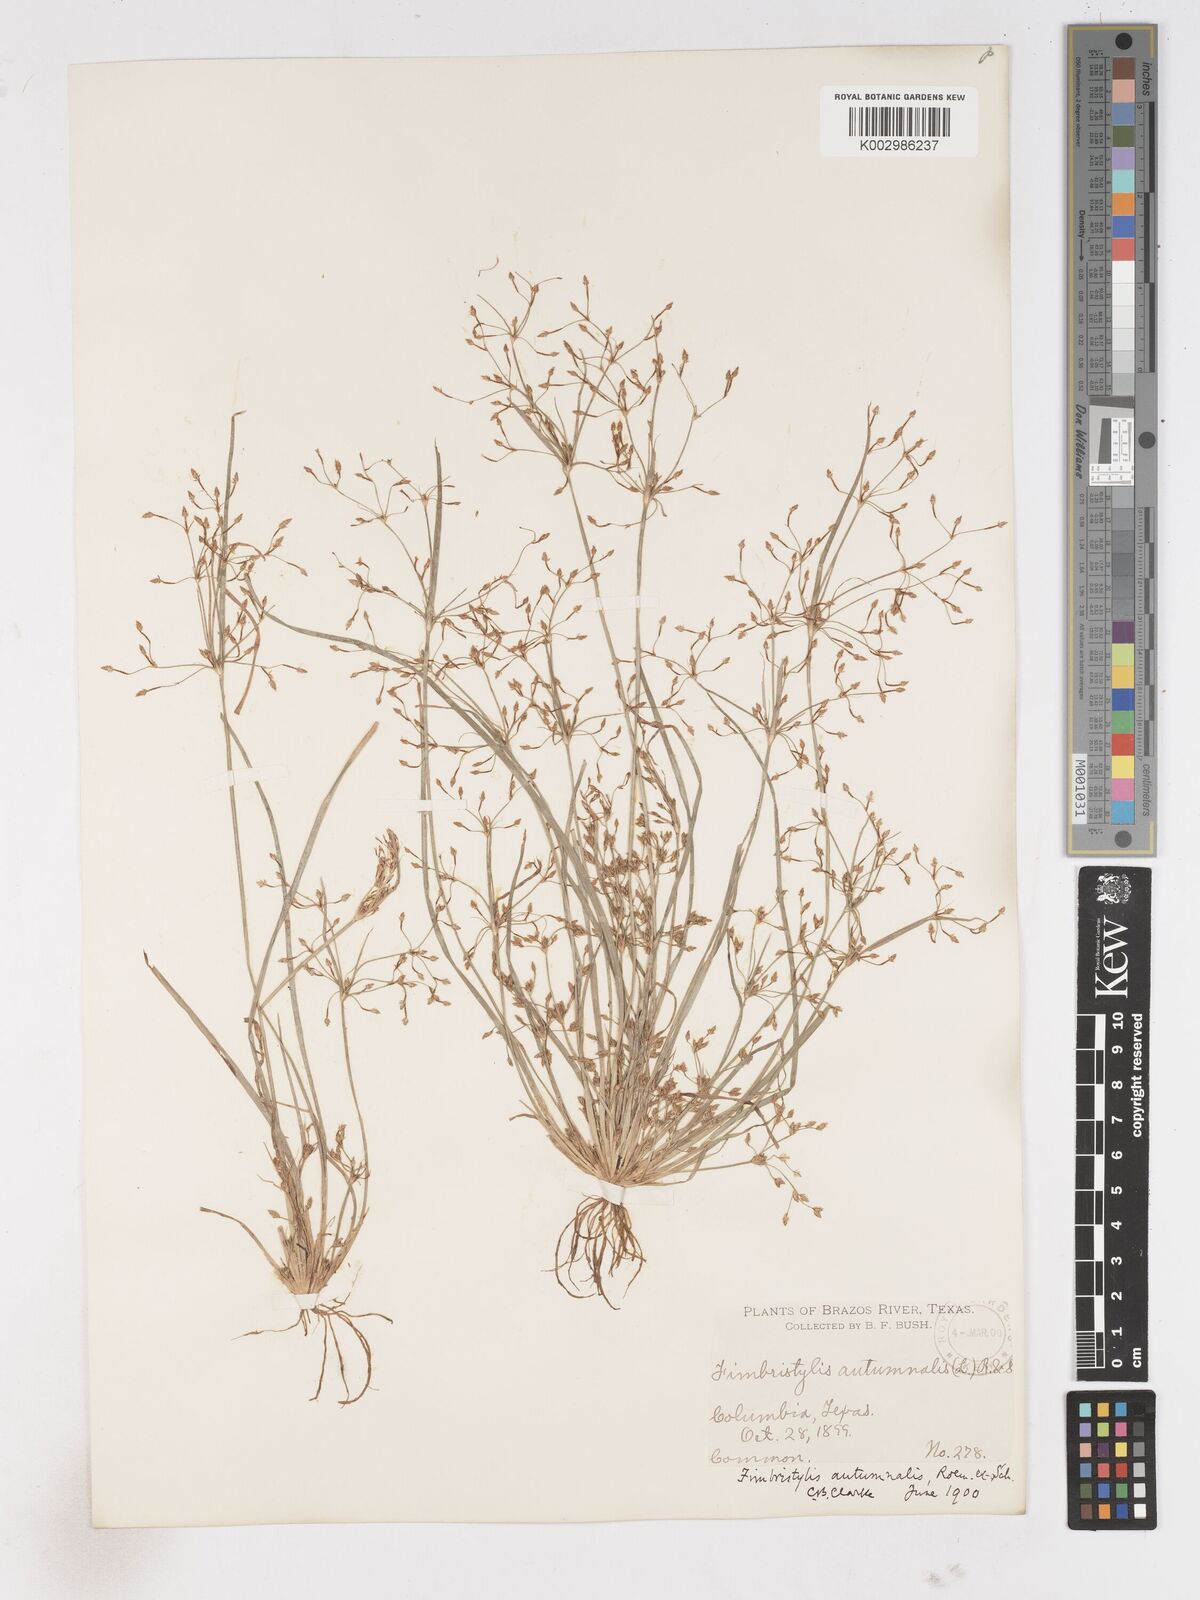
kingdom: Plantae
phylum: Tracheophyta
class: Liliopsida
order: Poales
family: Cyperaceae
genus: Fimbristylis
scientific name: Fimbristylis autumnalis
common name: Slender fimbristylis
